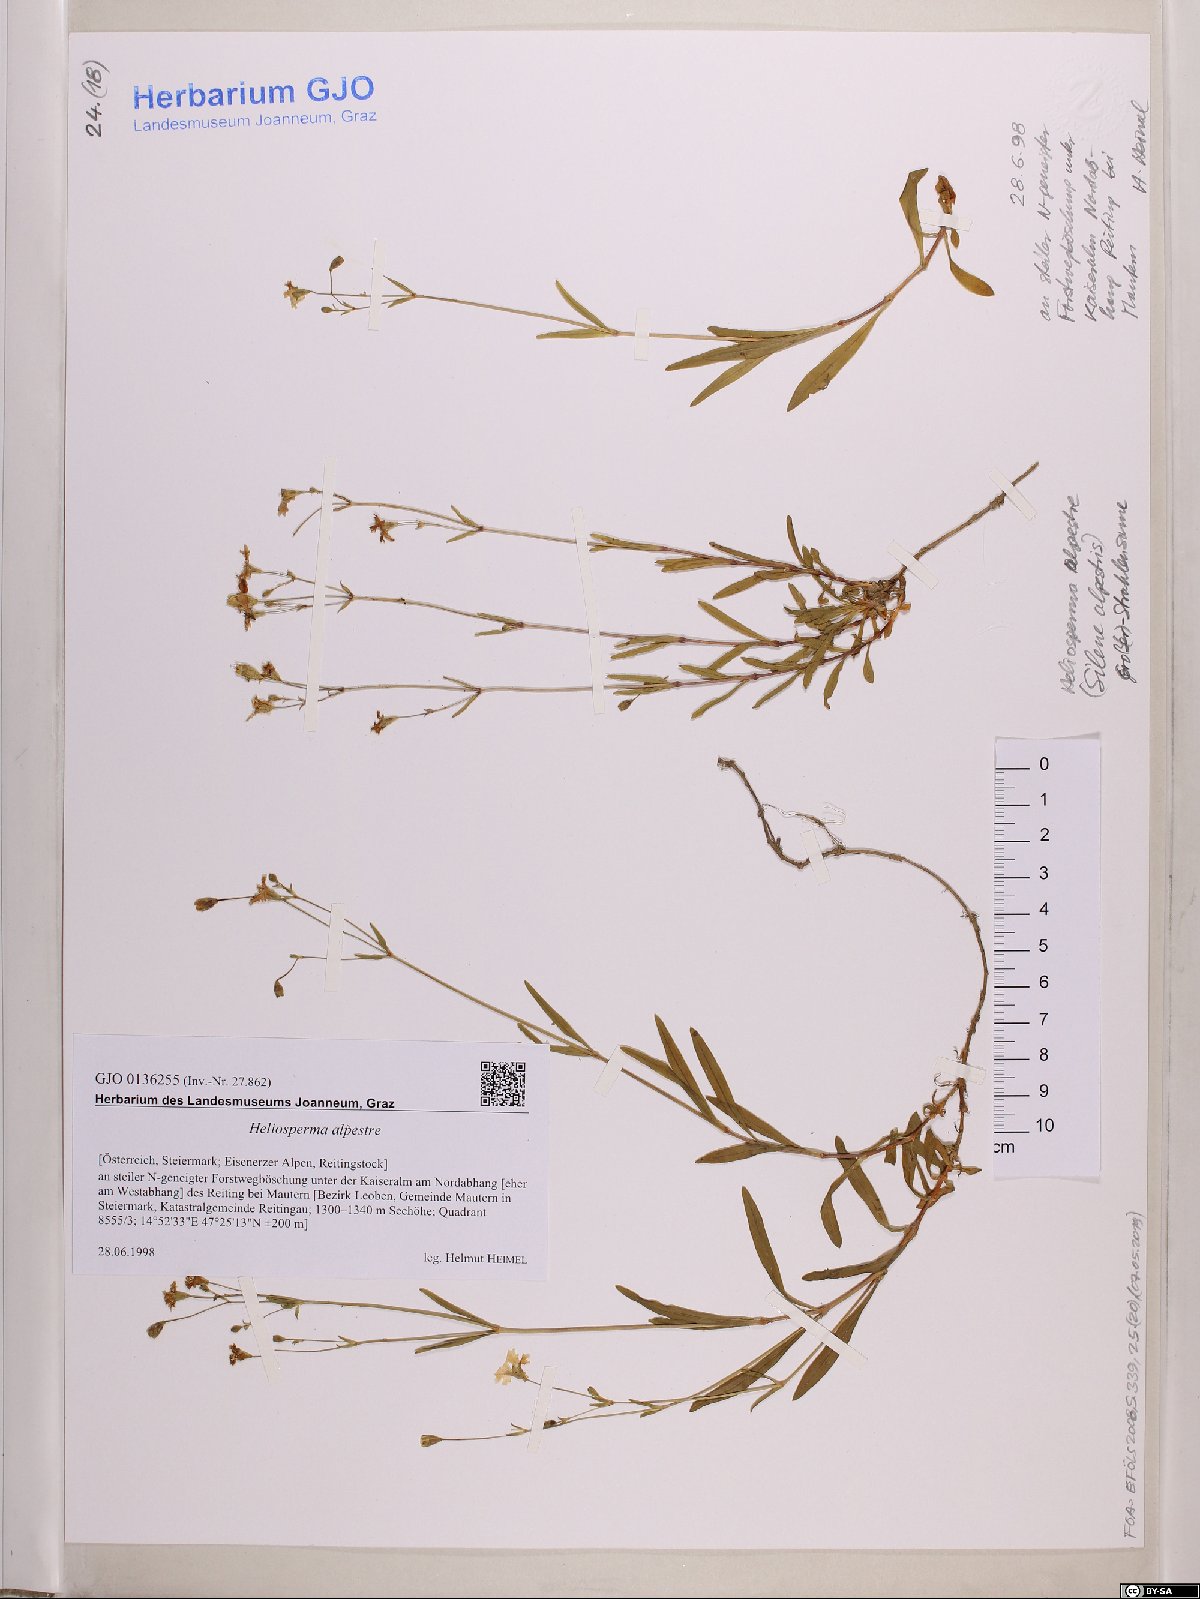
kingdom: Plantae
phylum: Tracheophyta
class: Magnoliopsida
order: Caryophyllales
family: Caryophyllaceae
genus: Heliosperma
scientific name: Heliosperma alpestre
